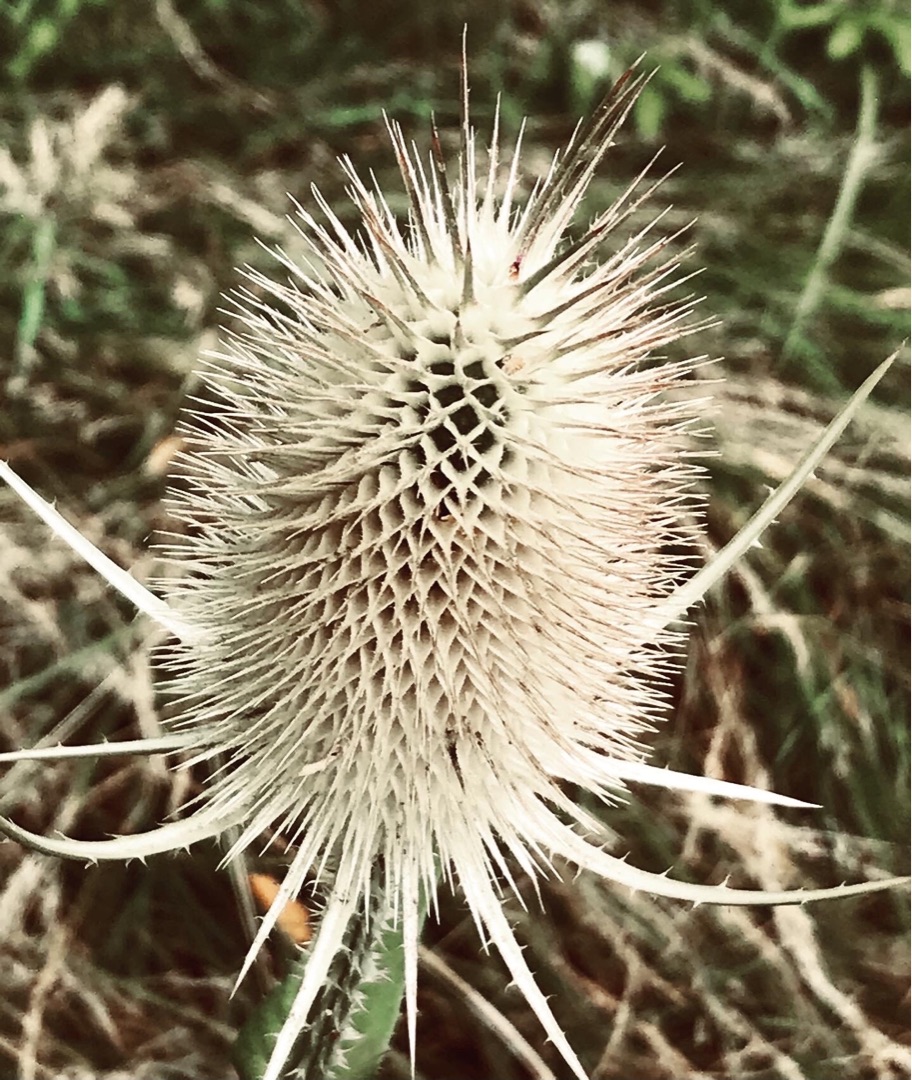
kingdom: Plantae
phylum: Tracheophyta
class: Magnoliopsida
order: Dipsacales
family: Caprifoliaceae
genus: Dipsacus
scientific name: Dipsacus fullonum
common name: Gærde-kartebolle
